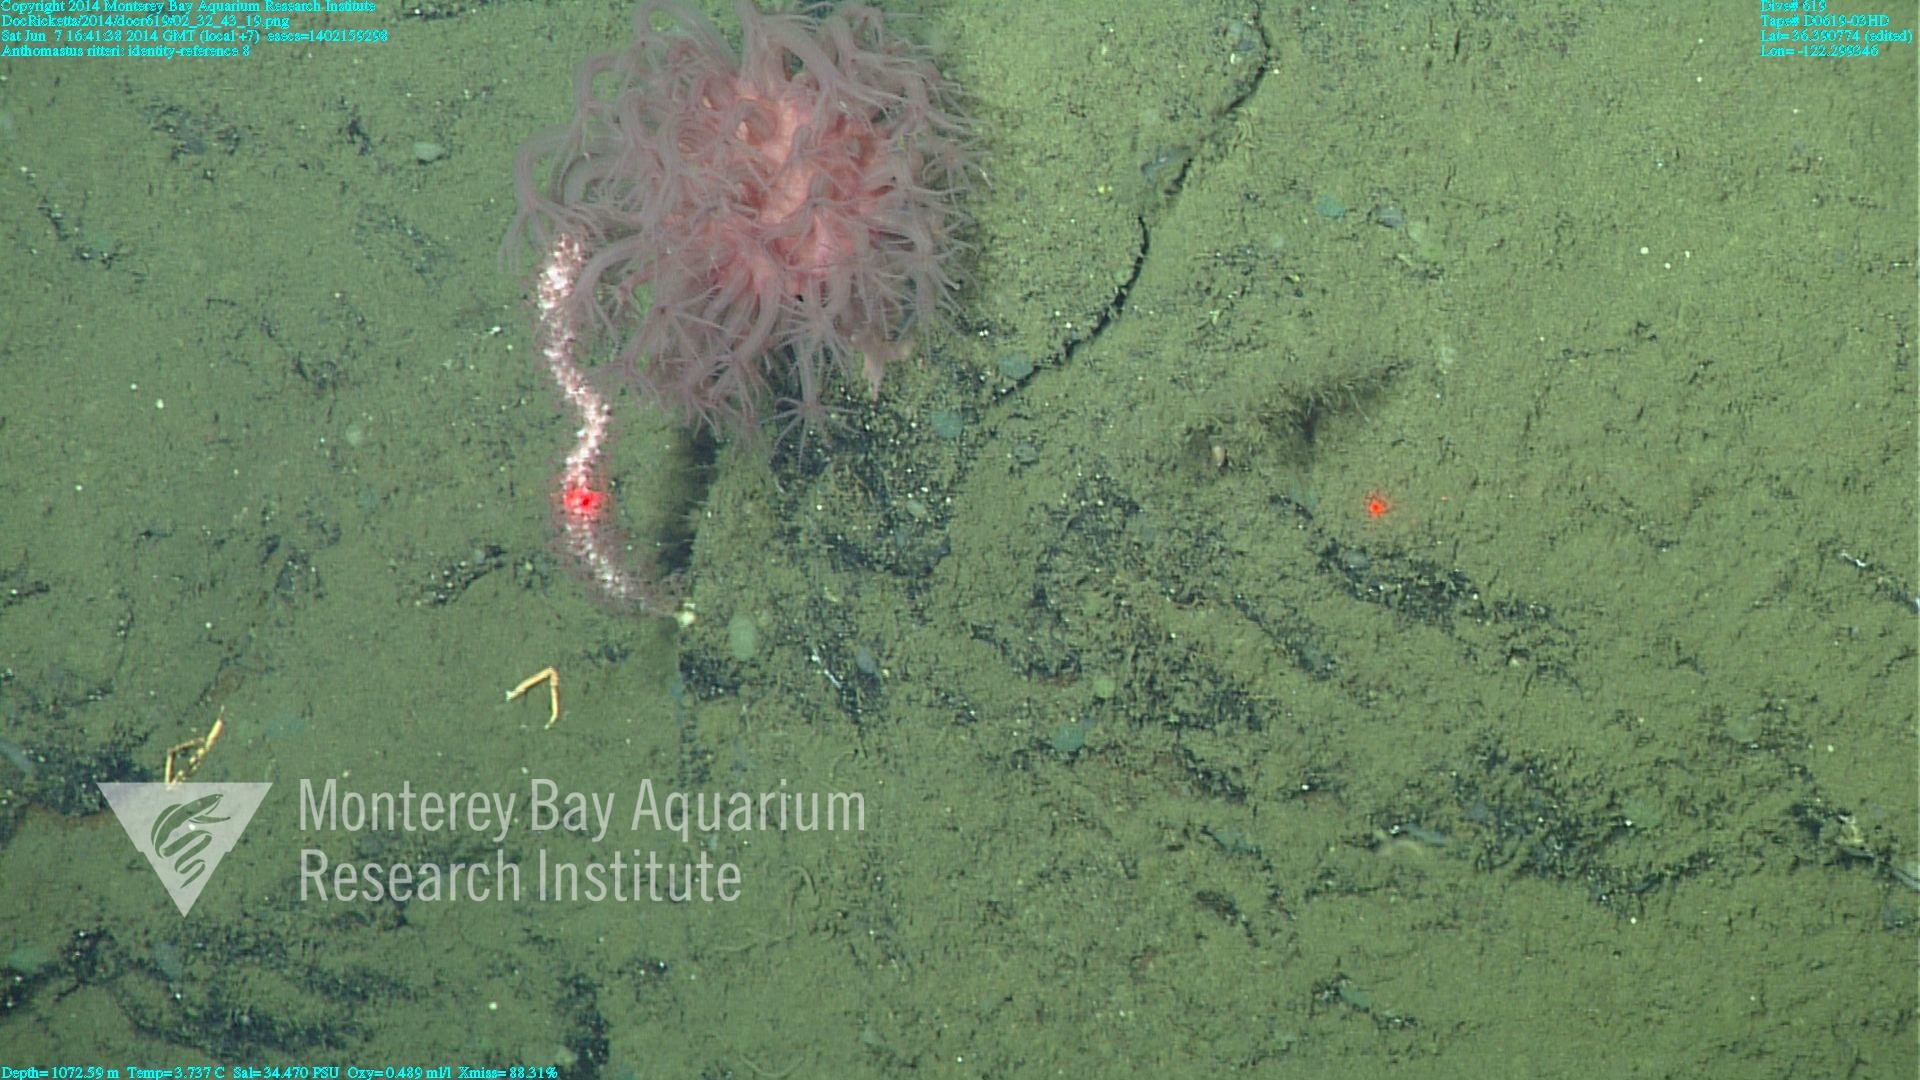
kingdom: Animalia
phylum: Cnidaria
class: Anthozoa
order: Scleralcyonacea
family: Coralliidae
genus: Heteropolypus
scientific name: Heteropolypus ritteri
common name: Ritter's soft coral
